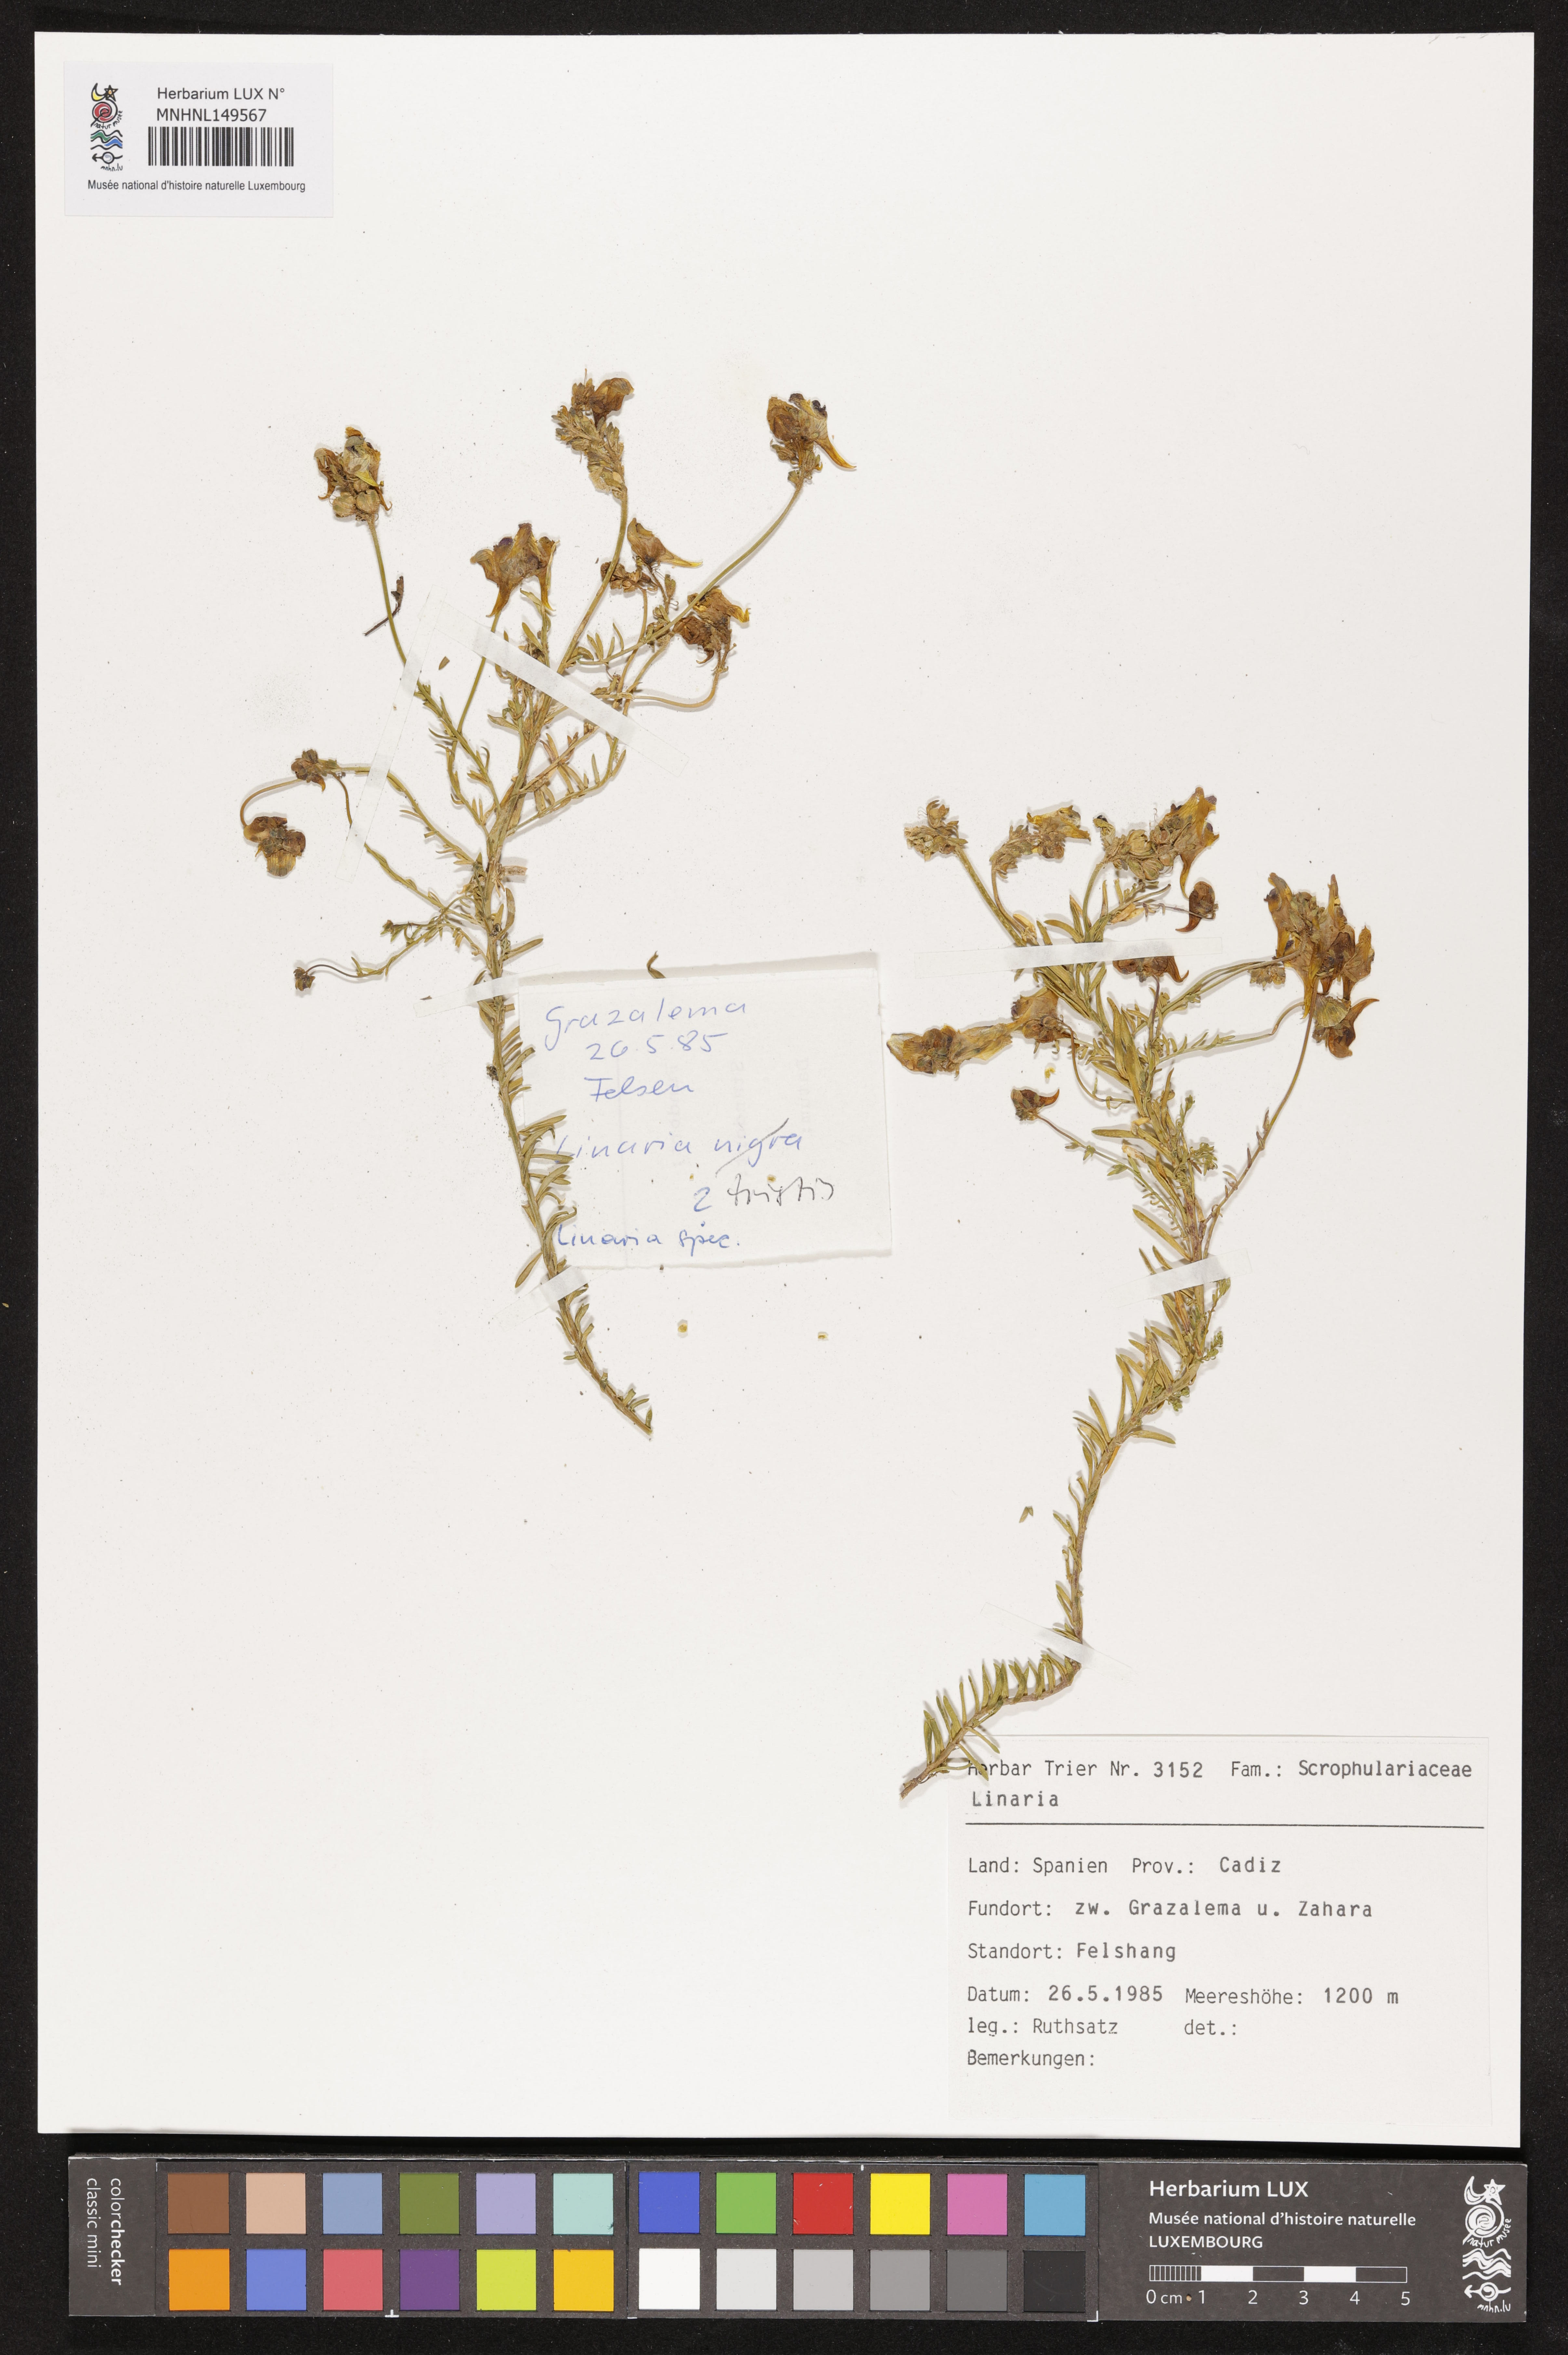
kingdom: Plantae
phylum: Tracheophyta
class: Magnoliopsida
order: Lamiales
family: Plantaginaceae
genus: Linaria
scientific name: Linaria
